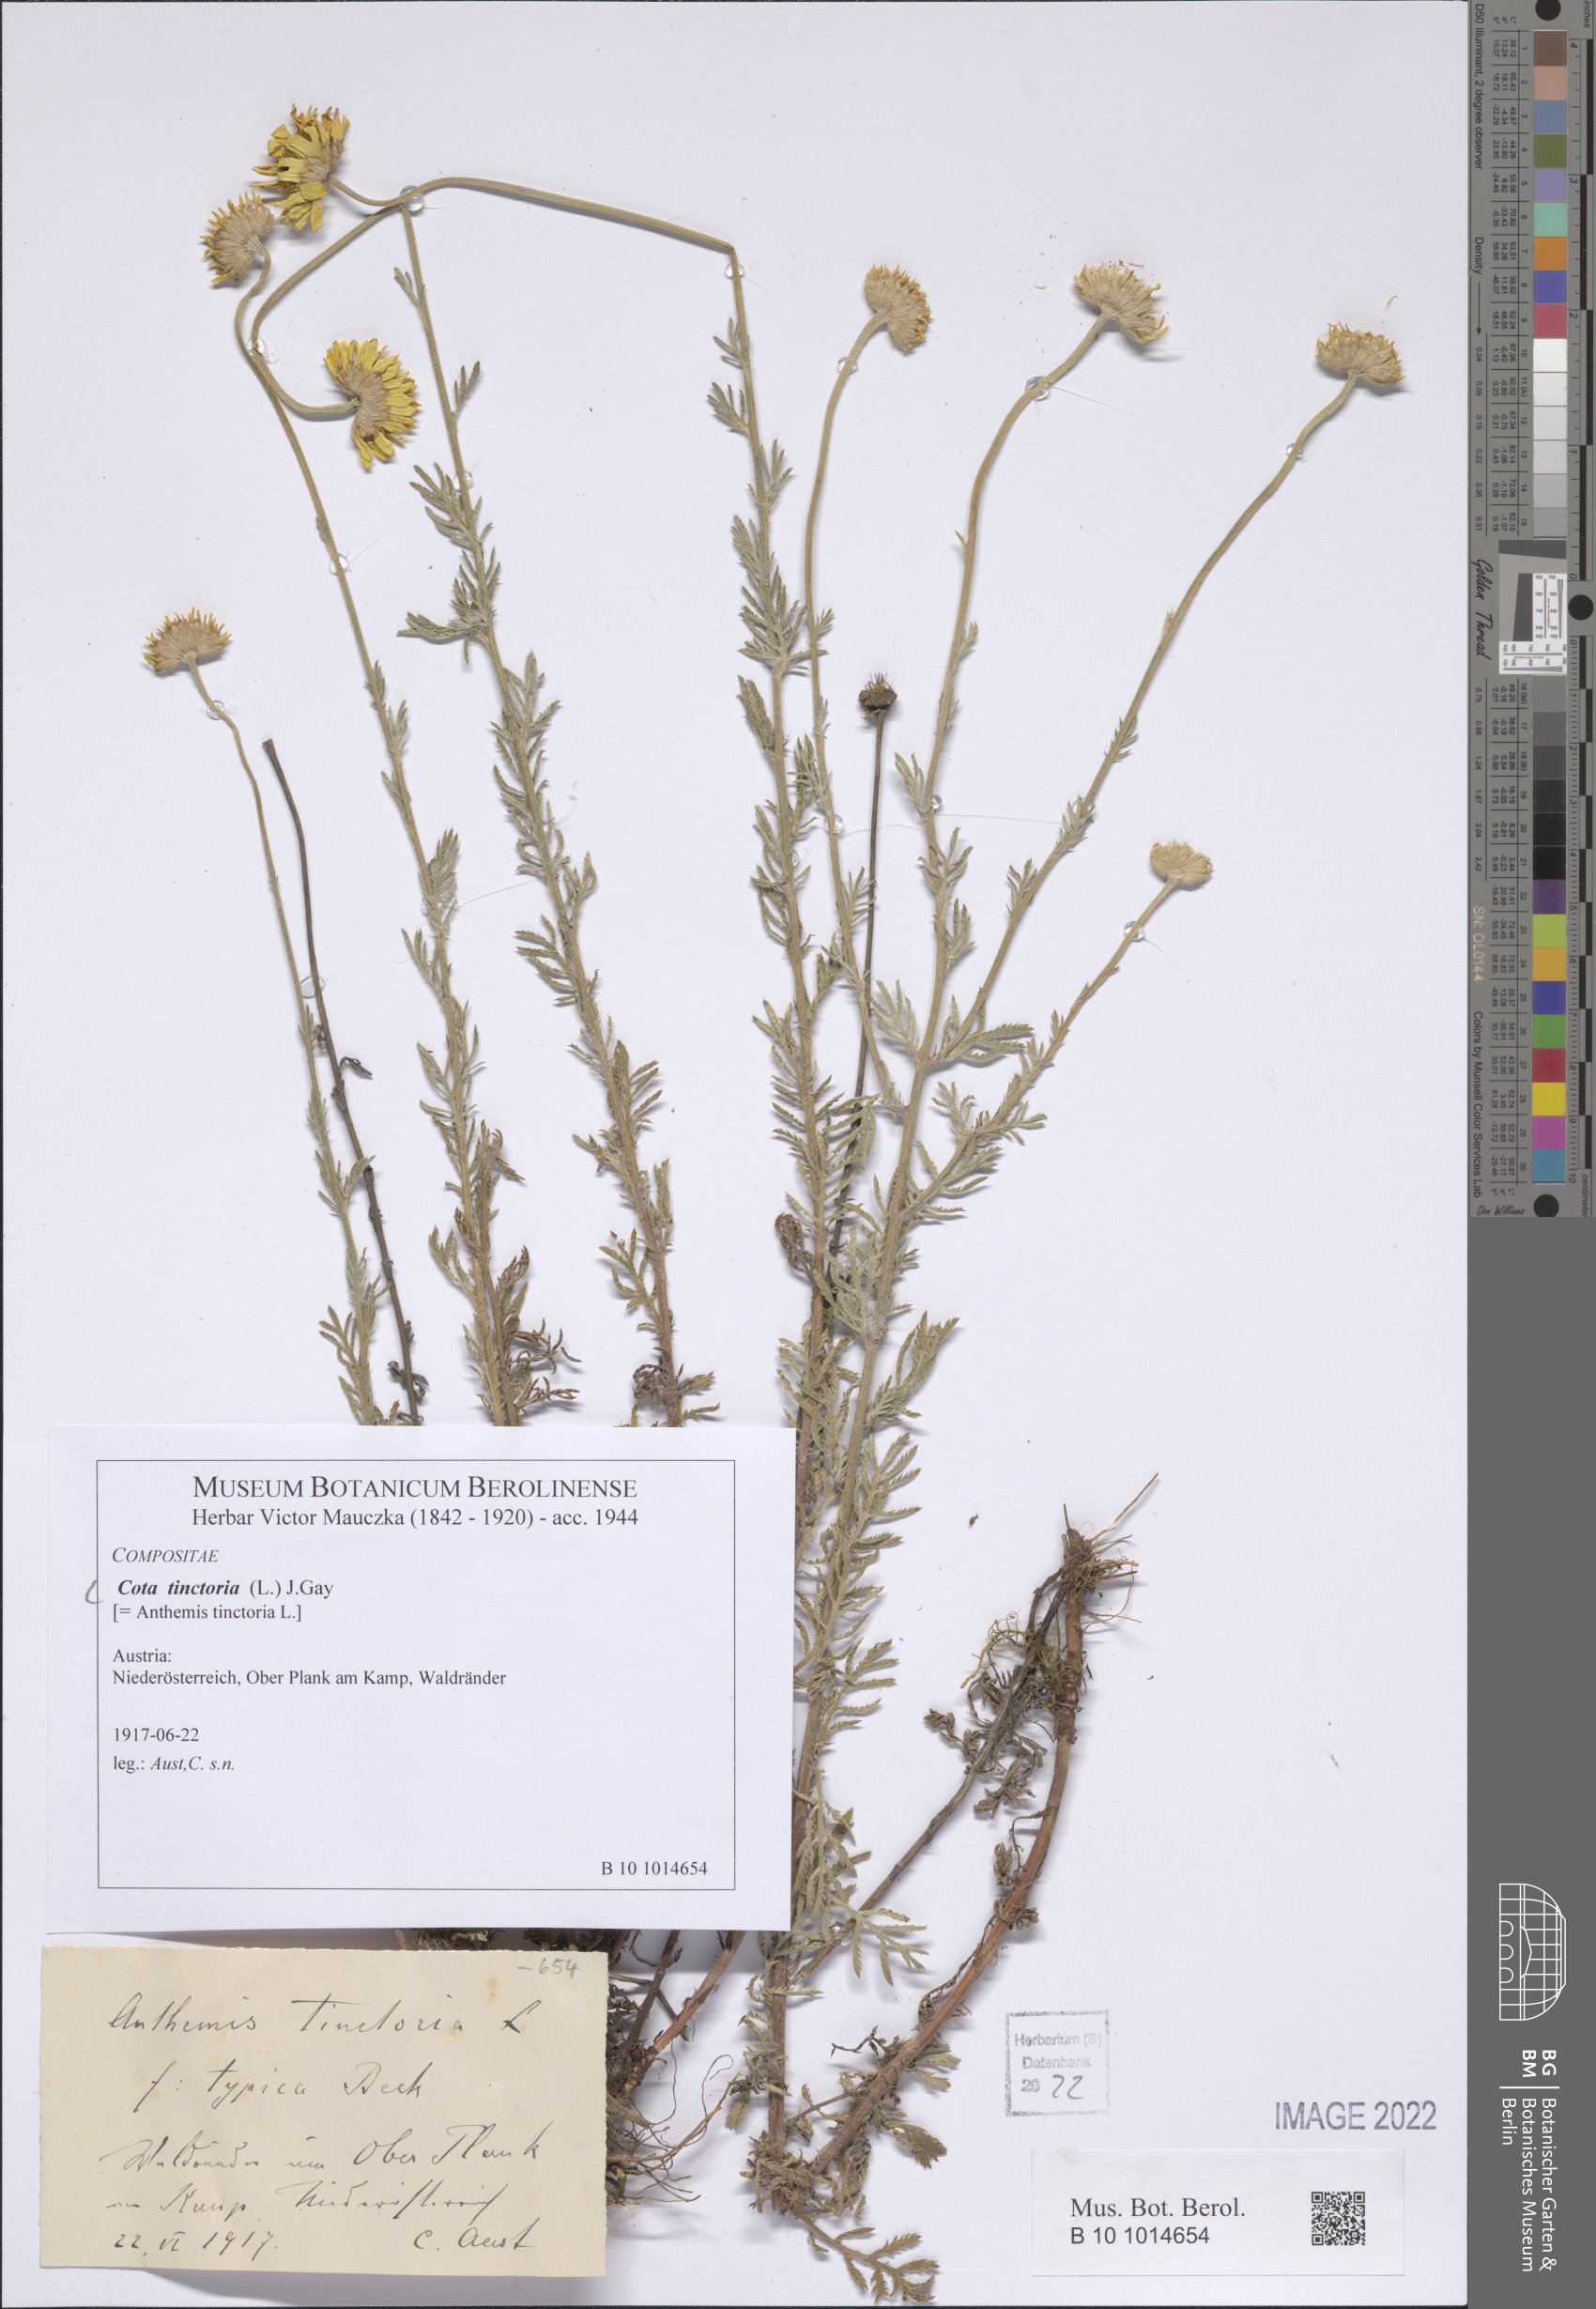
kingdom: Plantae
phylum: Tracheophyta
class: Magnoliopsida
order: Asterales
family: Asteraceae
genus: Cota
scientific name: Cota tinctoria
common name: Golden chamomile
